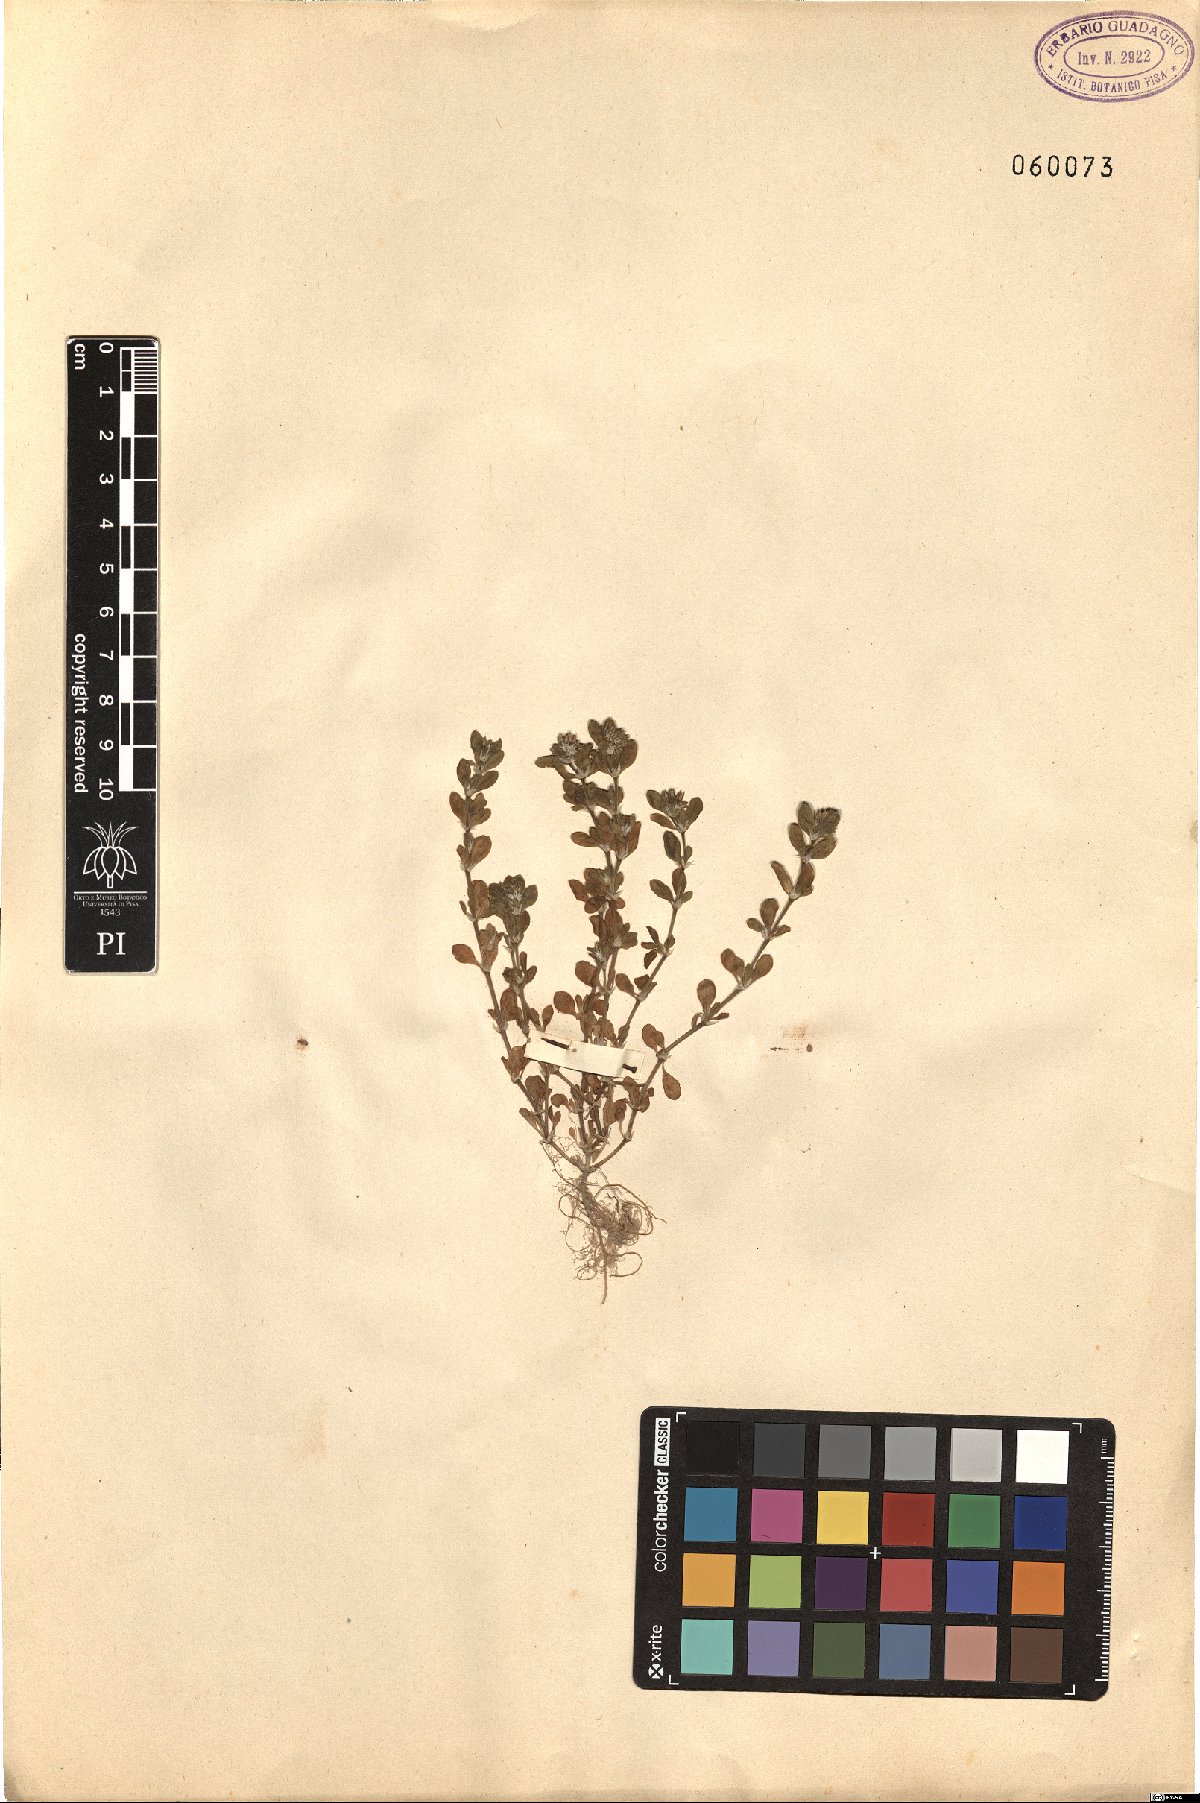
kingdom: Plantae
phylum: Tracheophyta
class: Magnoliopsida
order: Caryophyllales
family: Caryophyllaceae
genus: Polycarpon
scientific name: Polycarpon tetraphyllum
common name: Four-leaved all-seed
